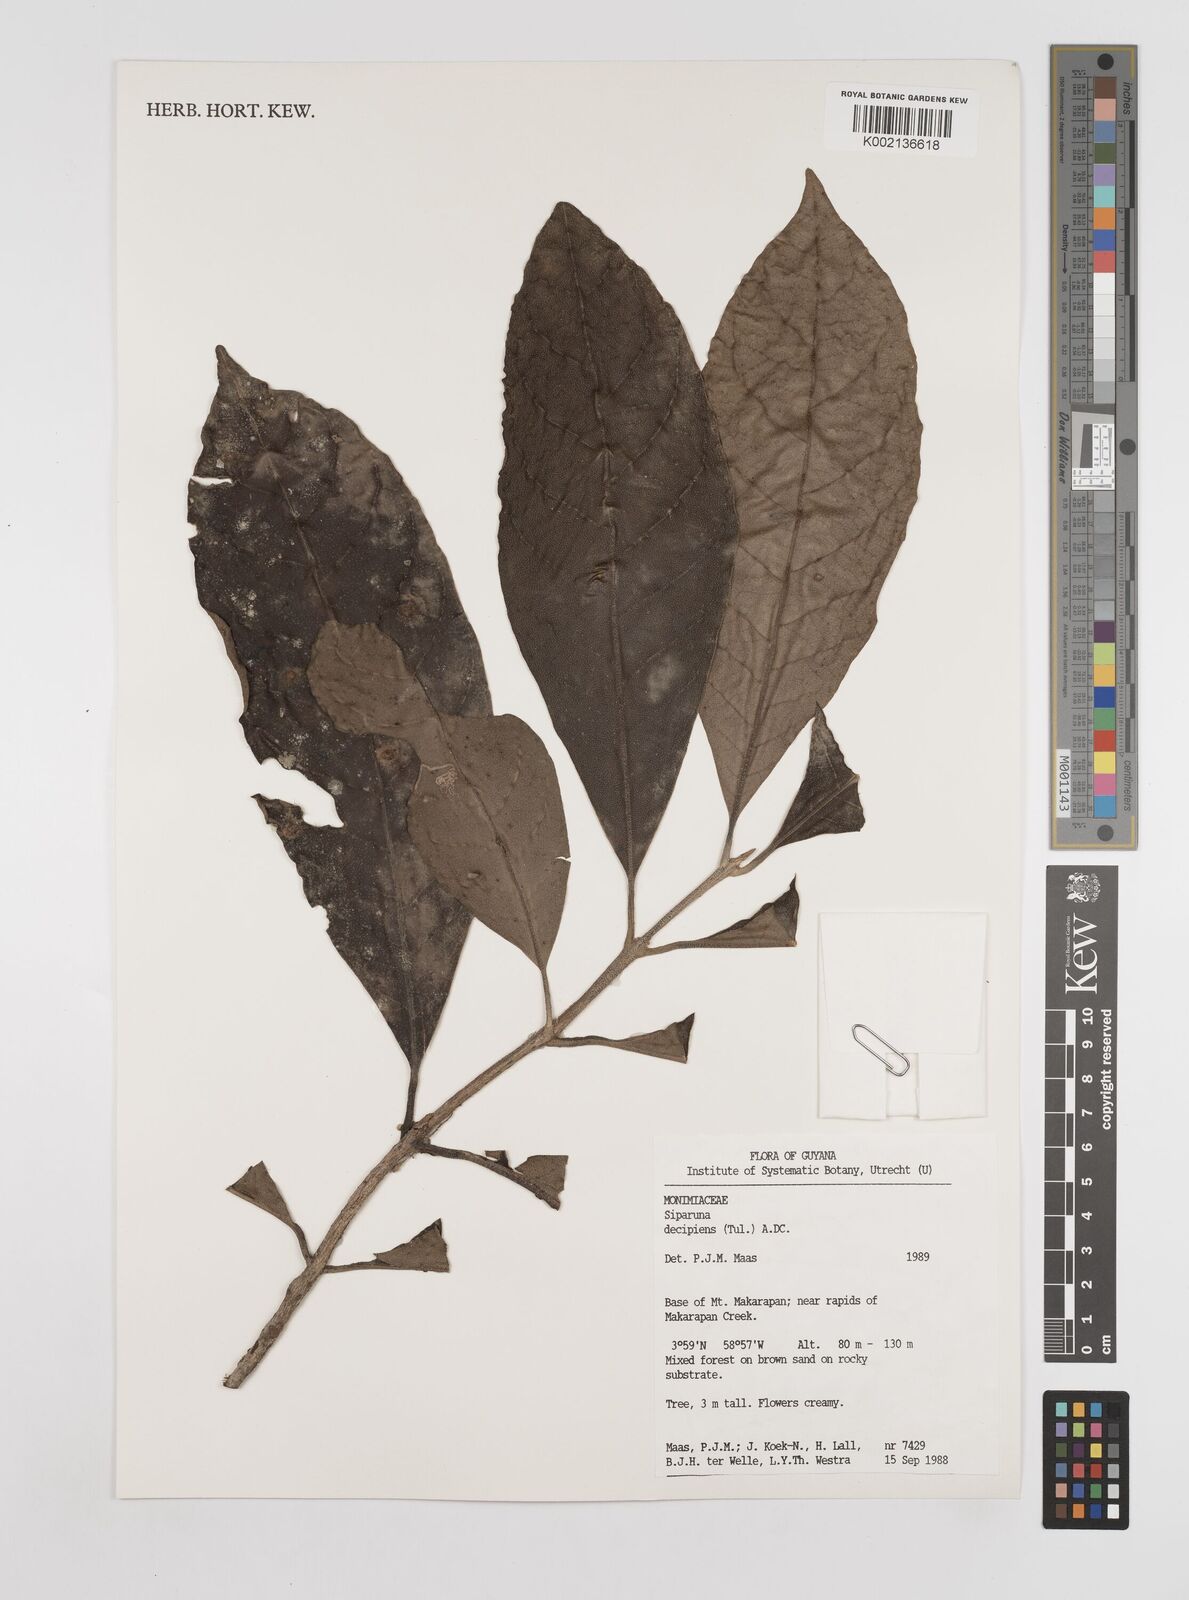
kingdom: Plantae
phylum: Tracheophyta
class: Magnoliopsida
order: Laurales
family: Siparunaceae
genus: Siparuna
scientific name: Siparuna decipiens
